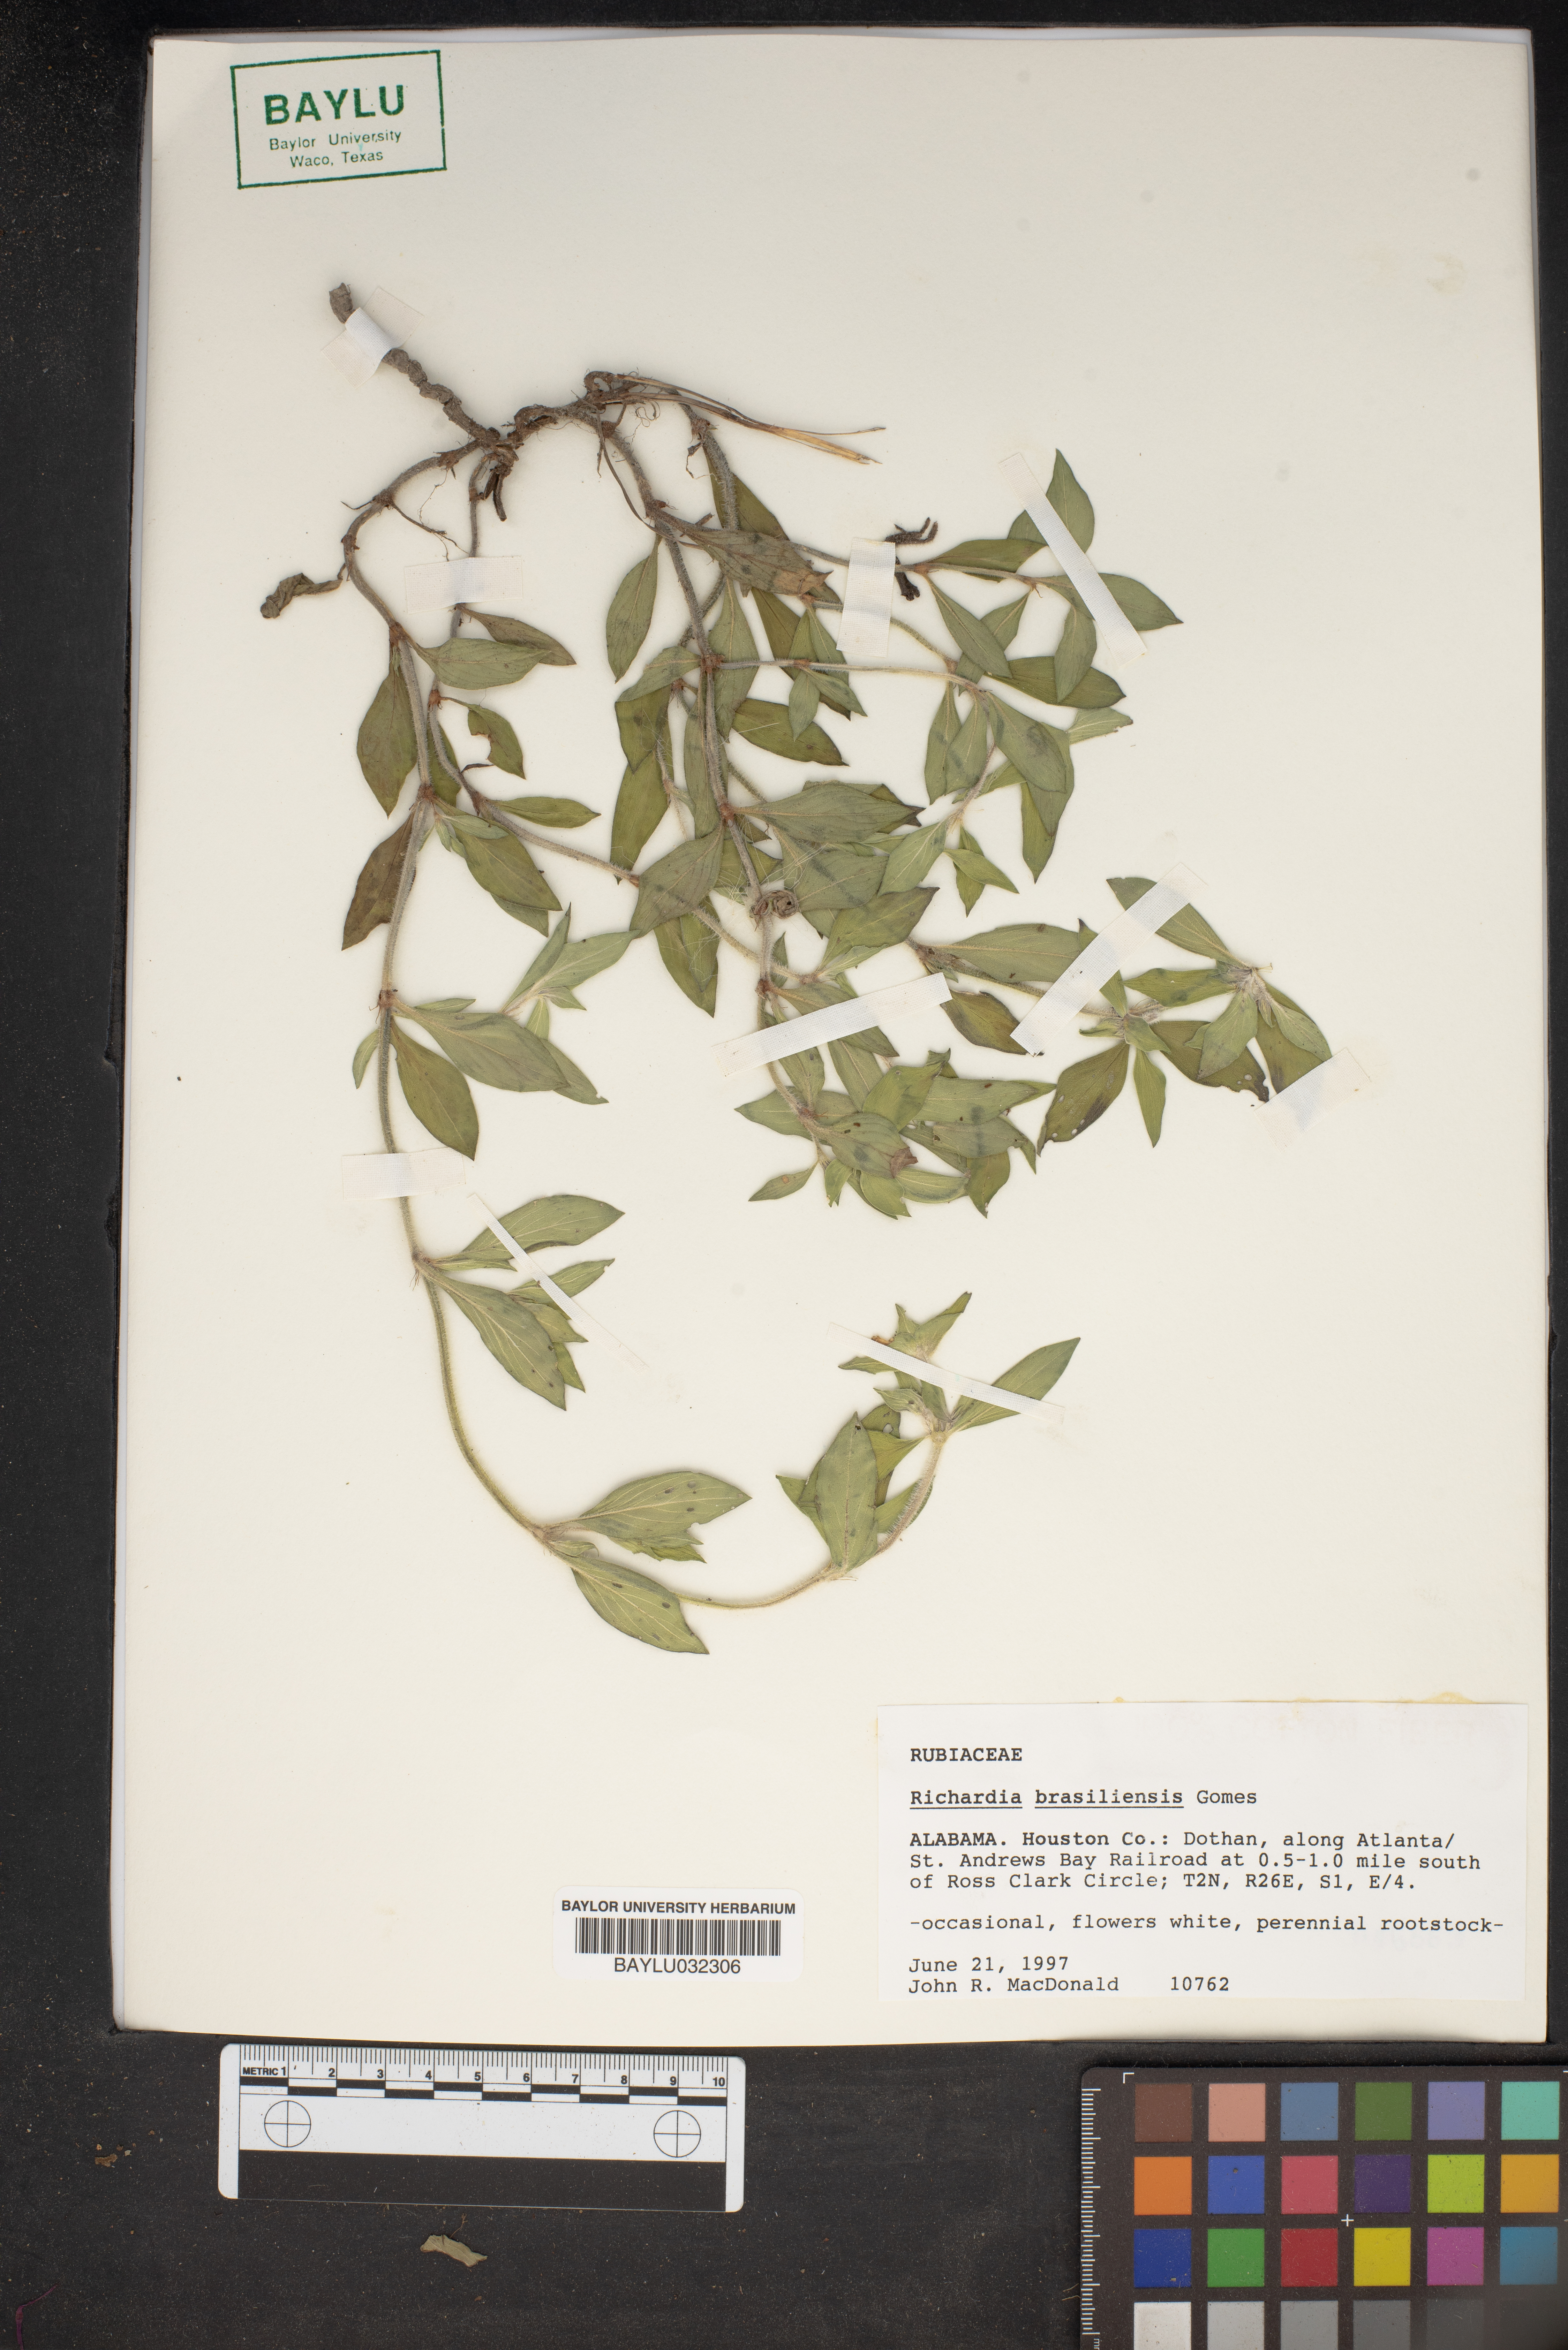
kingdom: Plantae
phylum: Tracheophyta
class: Magnoliopsida
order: Gentianales
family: Rubiaceae
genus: Richardia
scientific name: Richardia brasiliensis
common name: Tropical mexican clover
